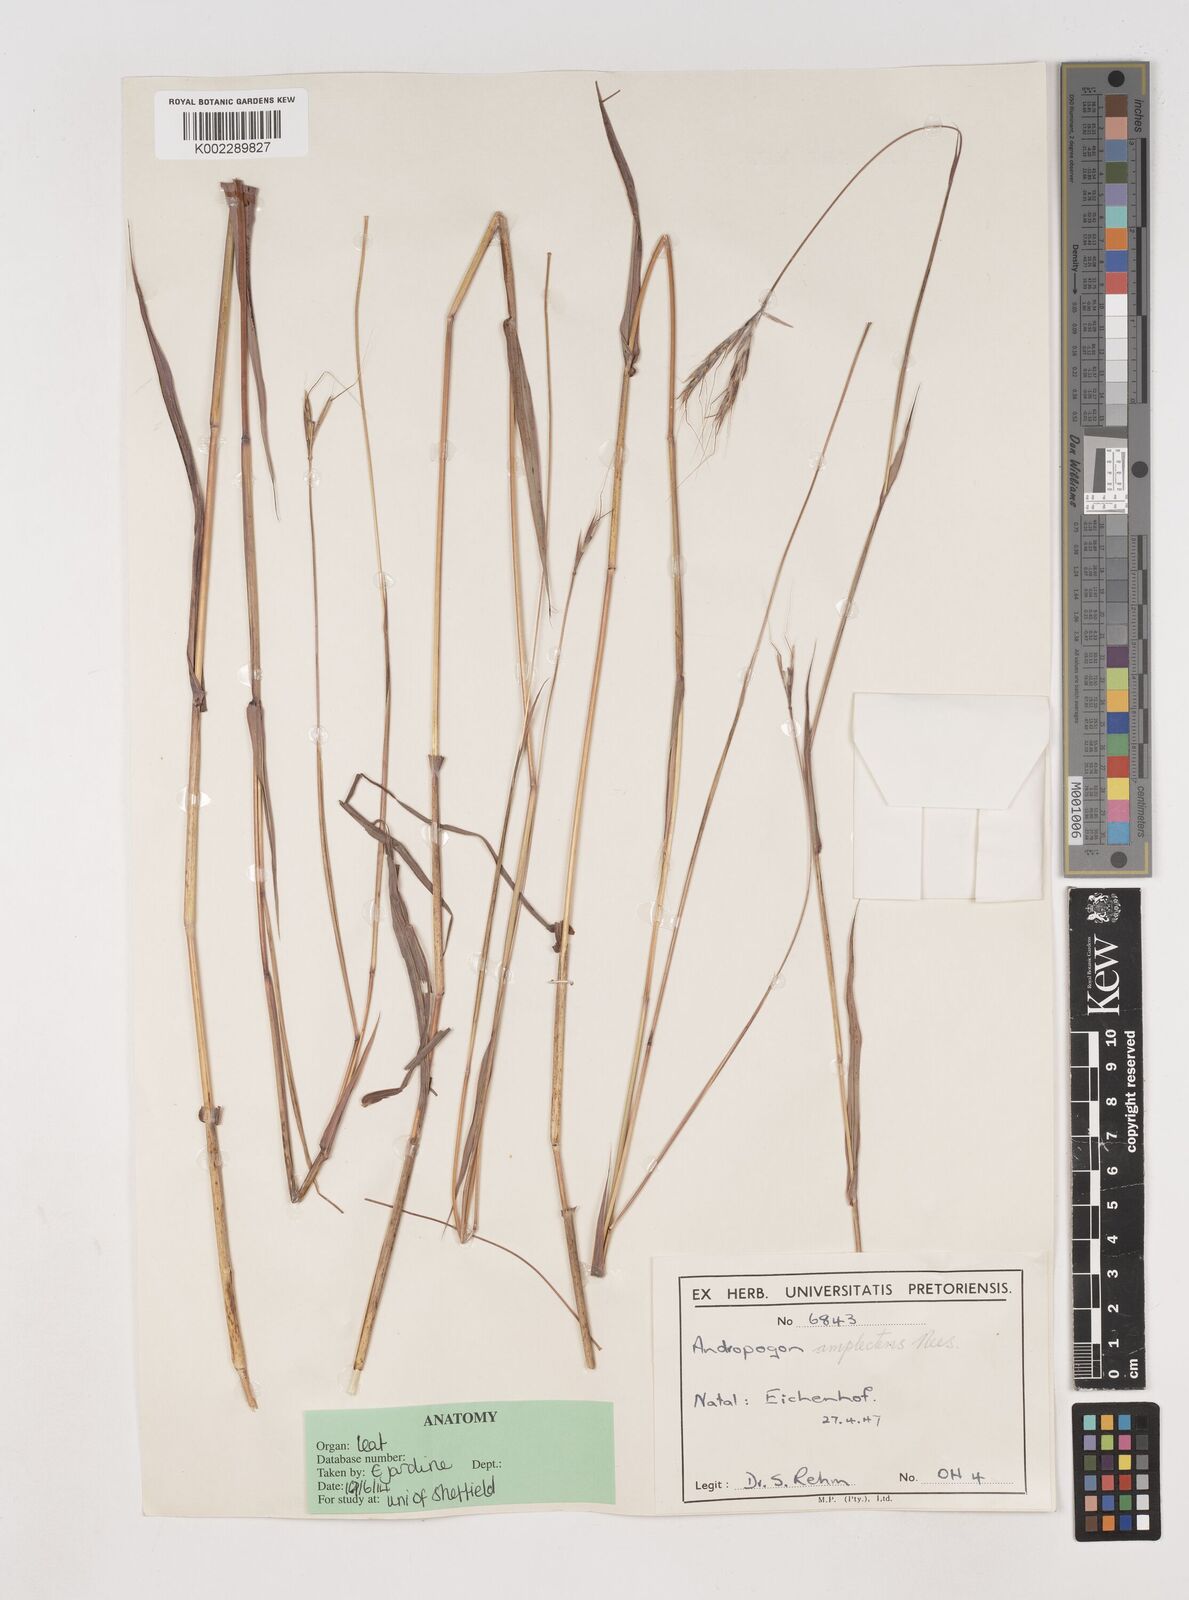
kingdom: Plantae
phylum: Tracheophyta
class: Liliopsida
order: Poales
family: Poaceae
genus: Diheteropogon
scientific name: Diheteropogon amplectens
